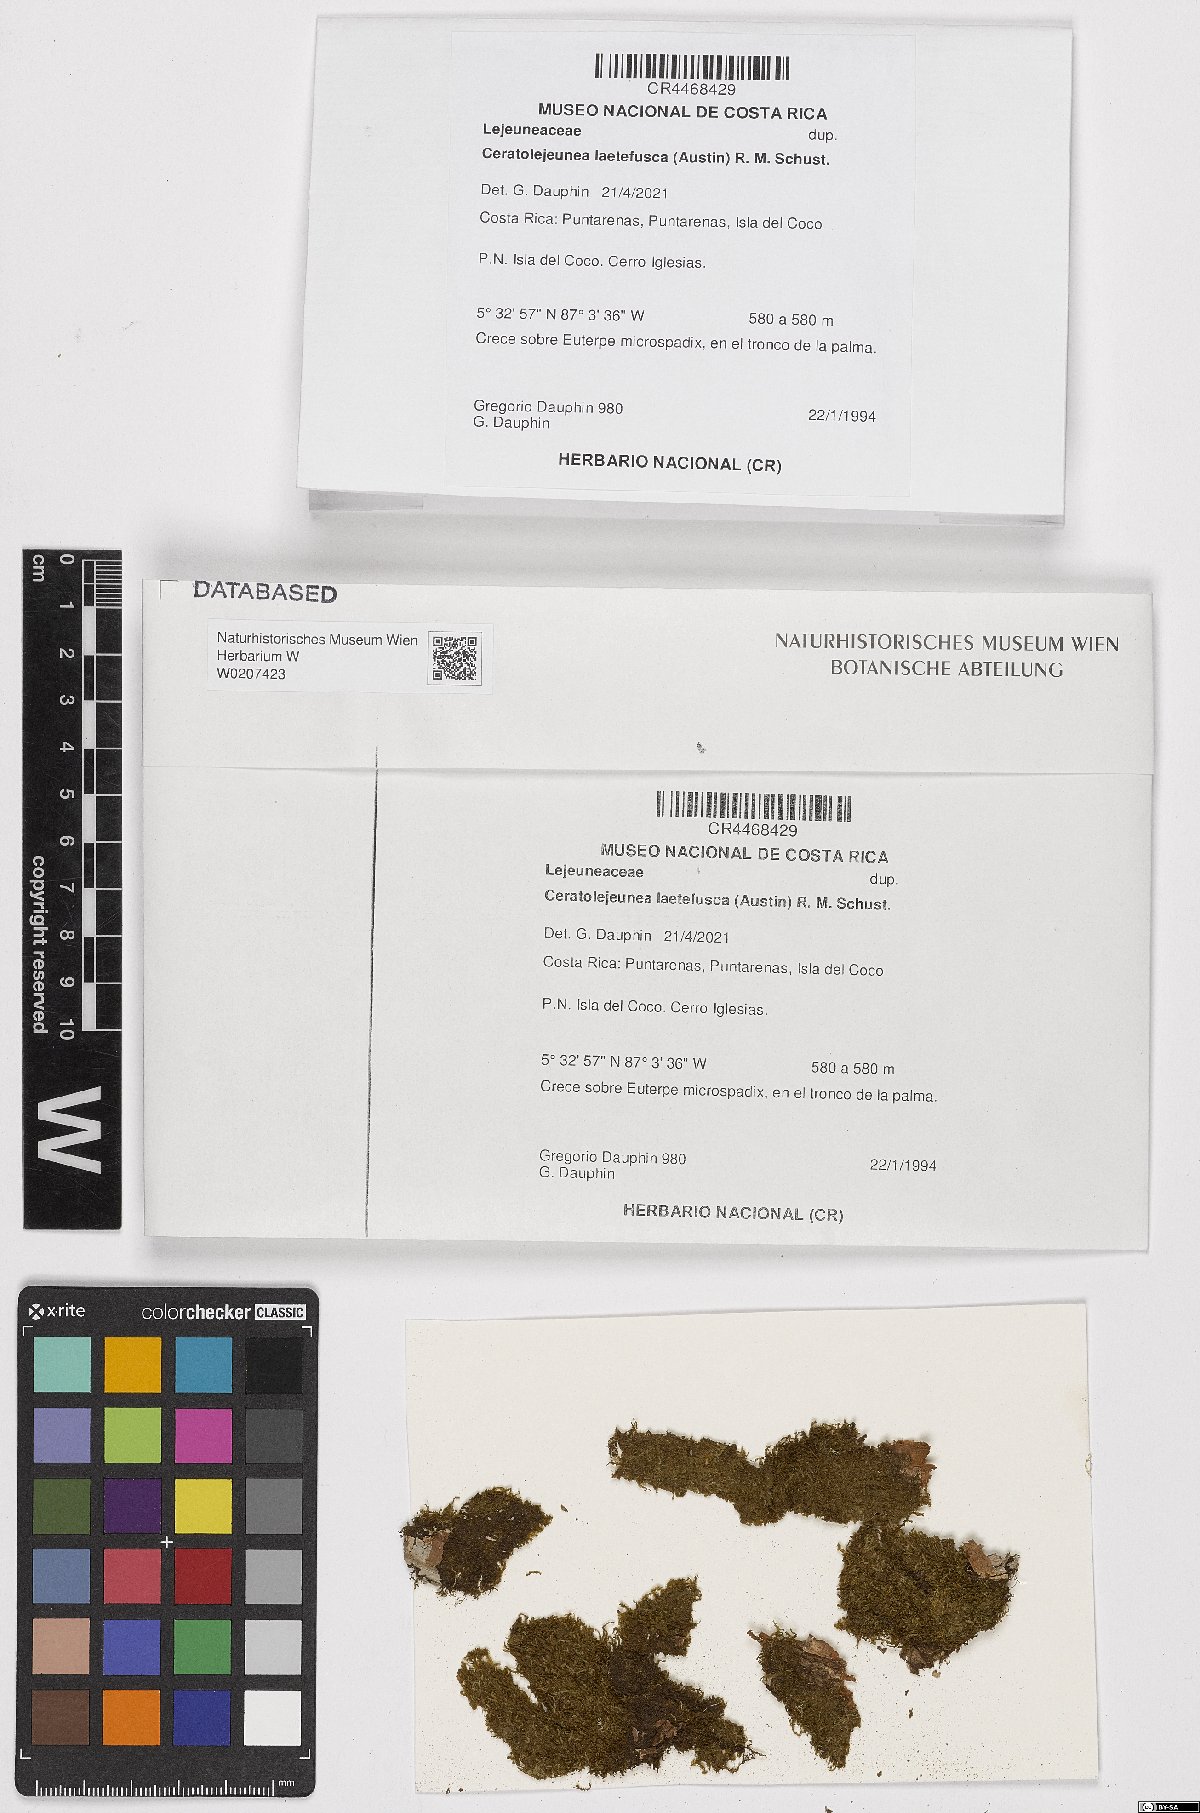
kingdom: Plantae
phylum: Marchantiophyta
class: Jungermanniopsida
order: Porellales
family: Lejeuneaceae
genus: Ceratolejeunea
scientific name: Ceratolejeunea laetefusca
